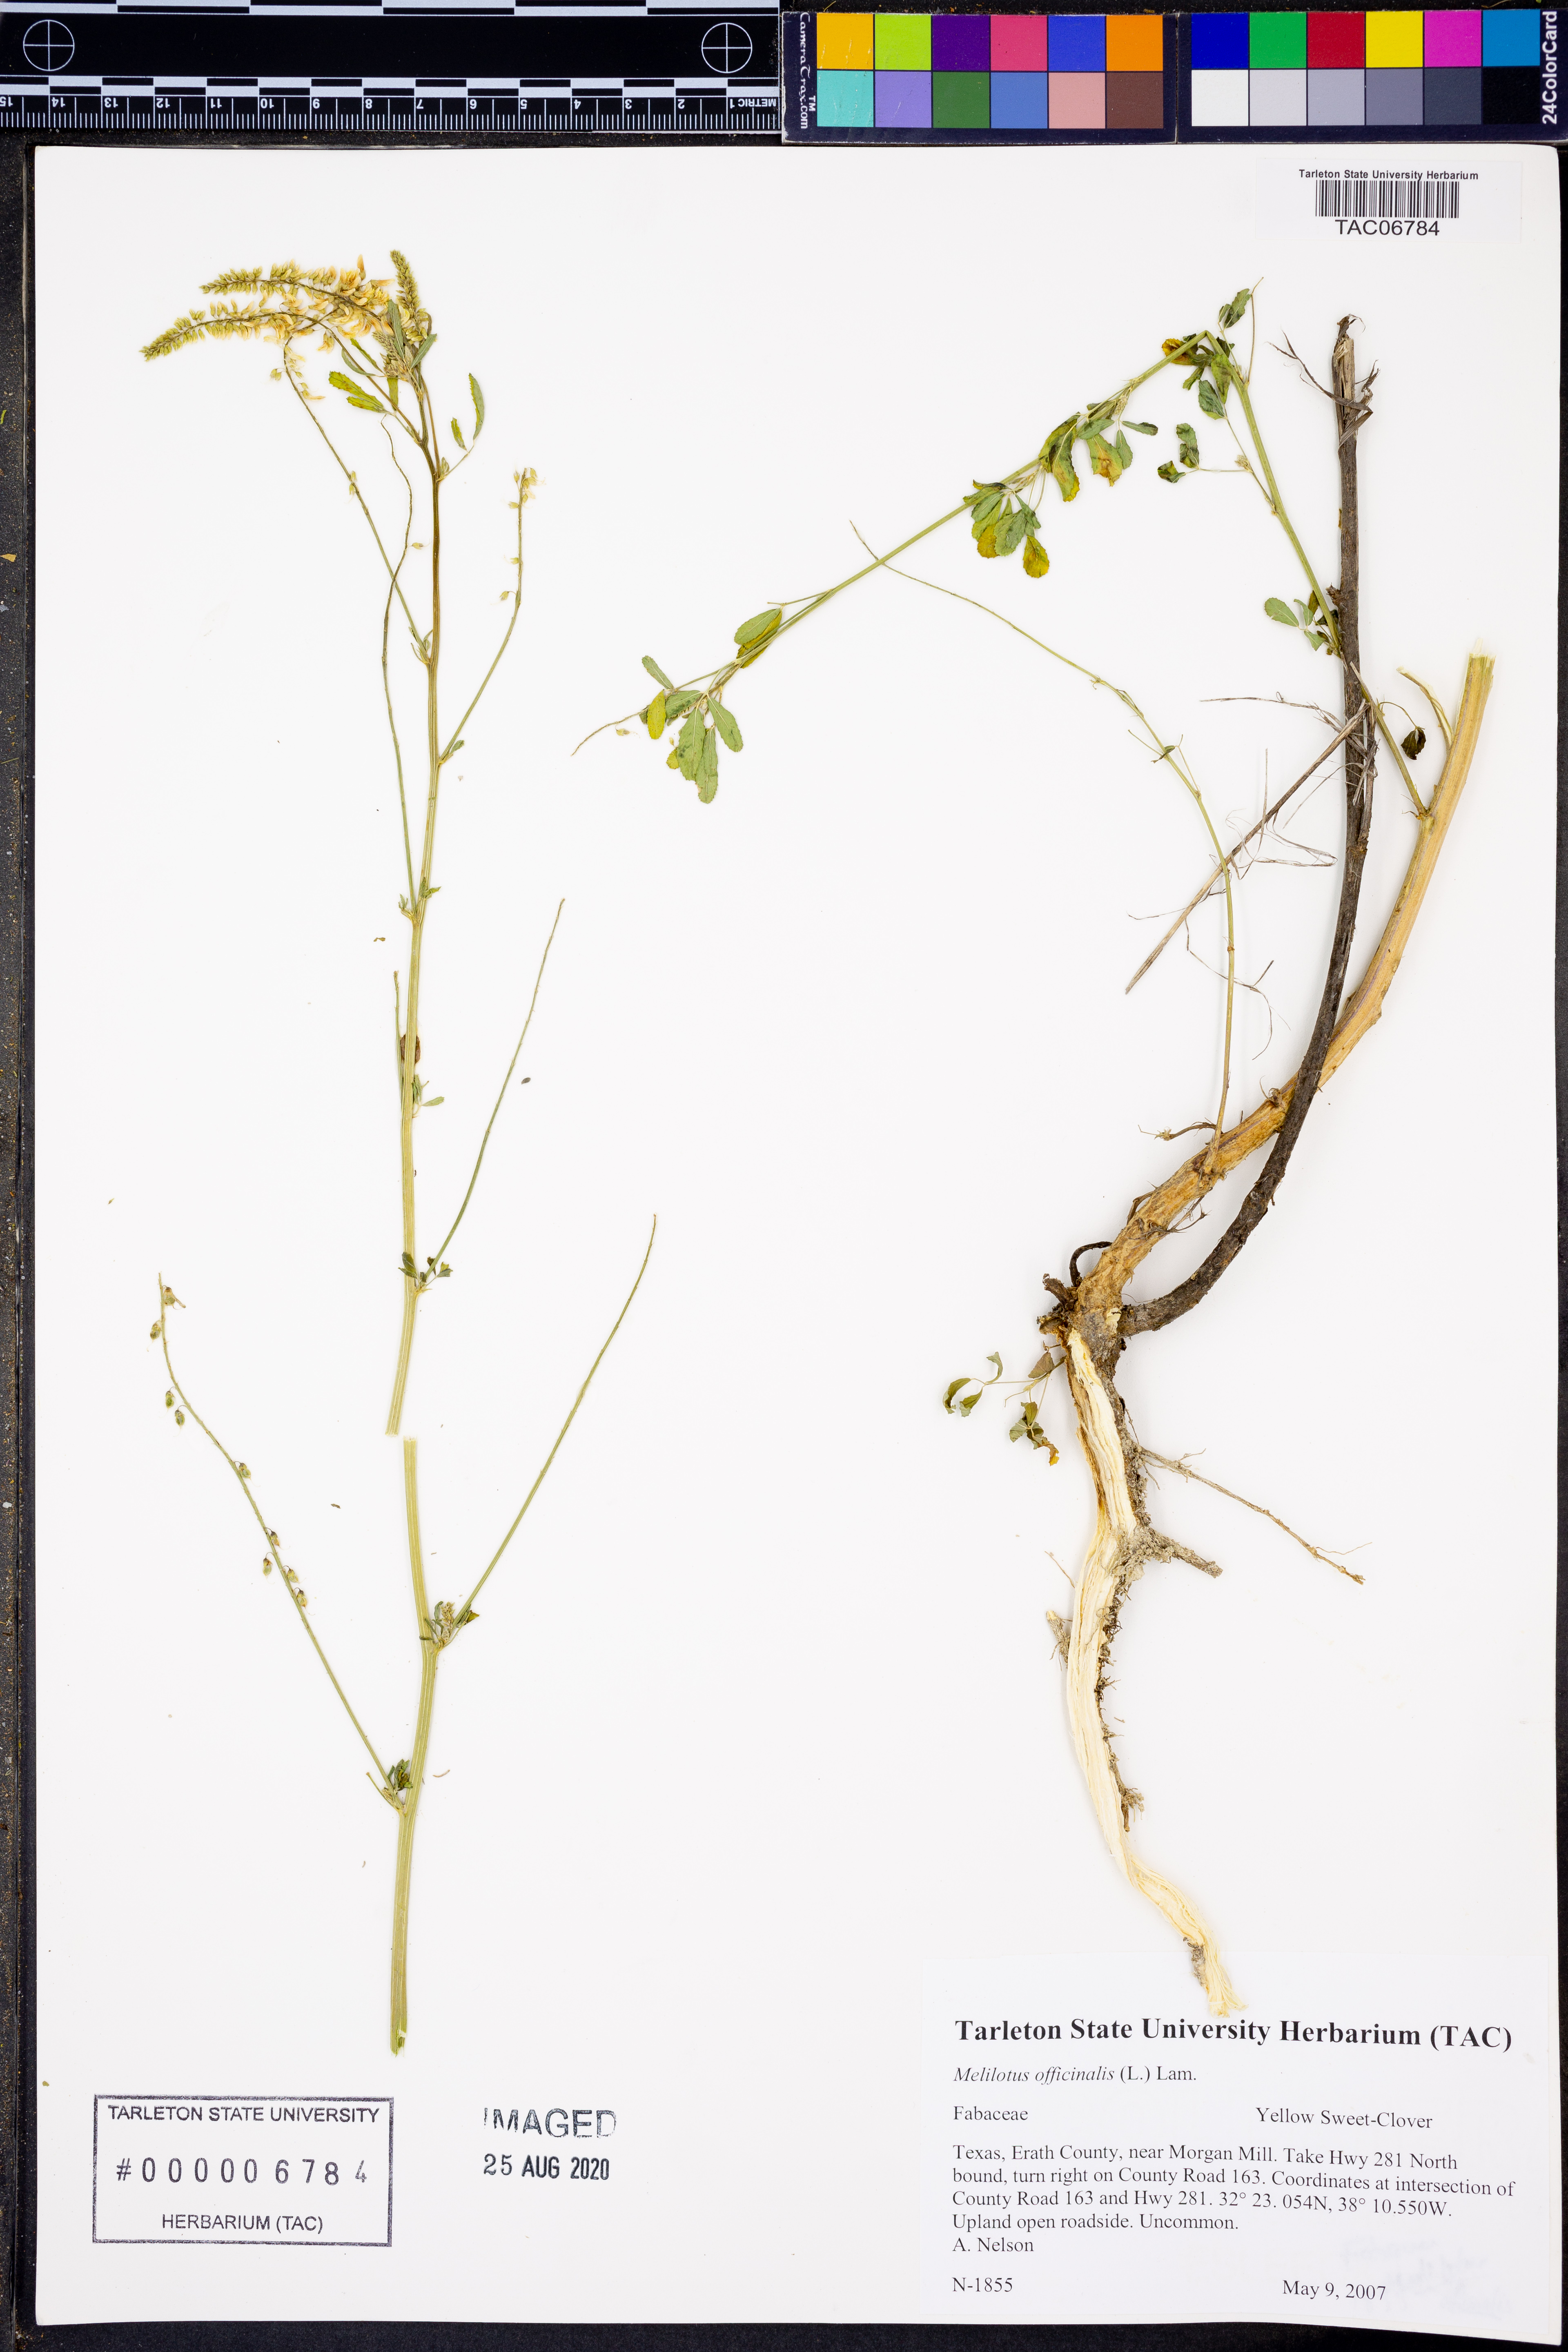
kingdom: Plantae
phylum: Tracheophyta
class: Magnoliopsida
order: Fabales
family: Fabaceae
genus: Melilotus
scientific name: Melilotus officinalis
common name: Sweetclover
